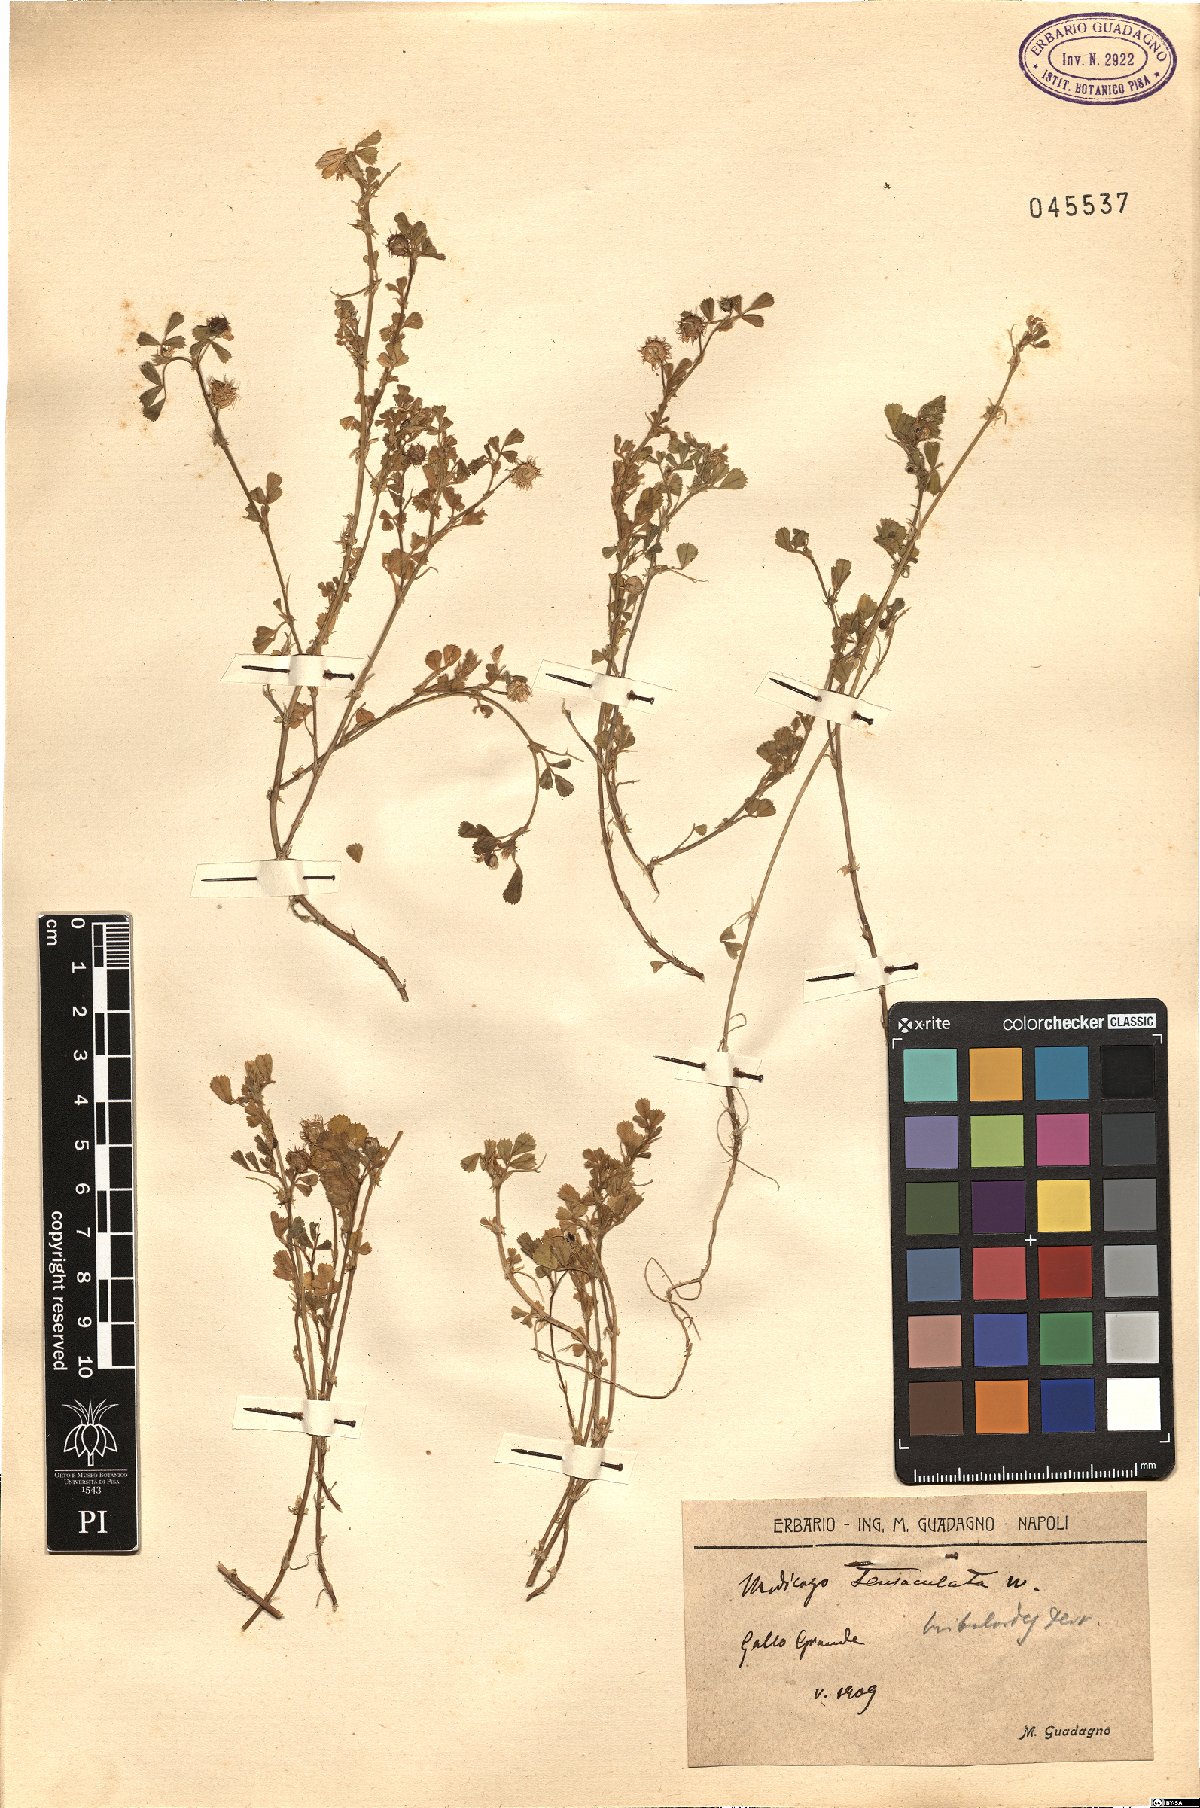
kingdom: Plantae
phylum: Tracheophyta
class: Magnoliopsida
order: Fabales
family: Fabaceae
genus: Medicago
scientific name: Medicago truncatula
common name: Strong-spined medick
